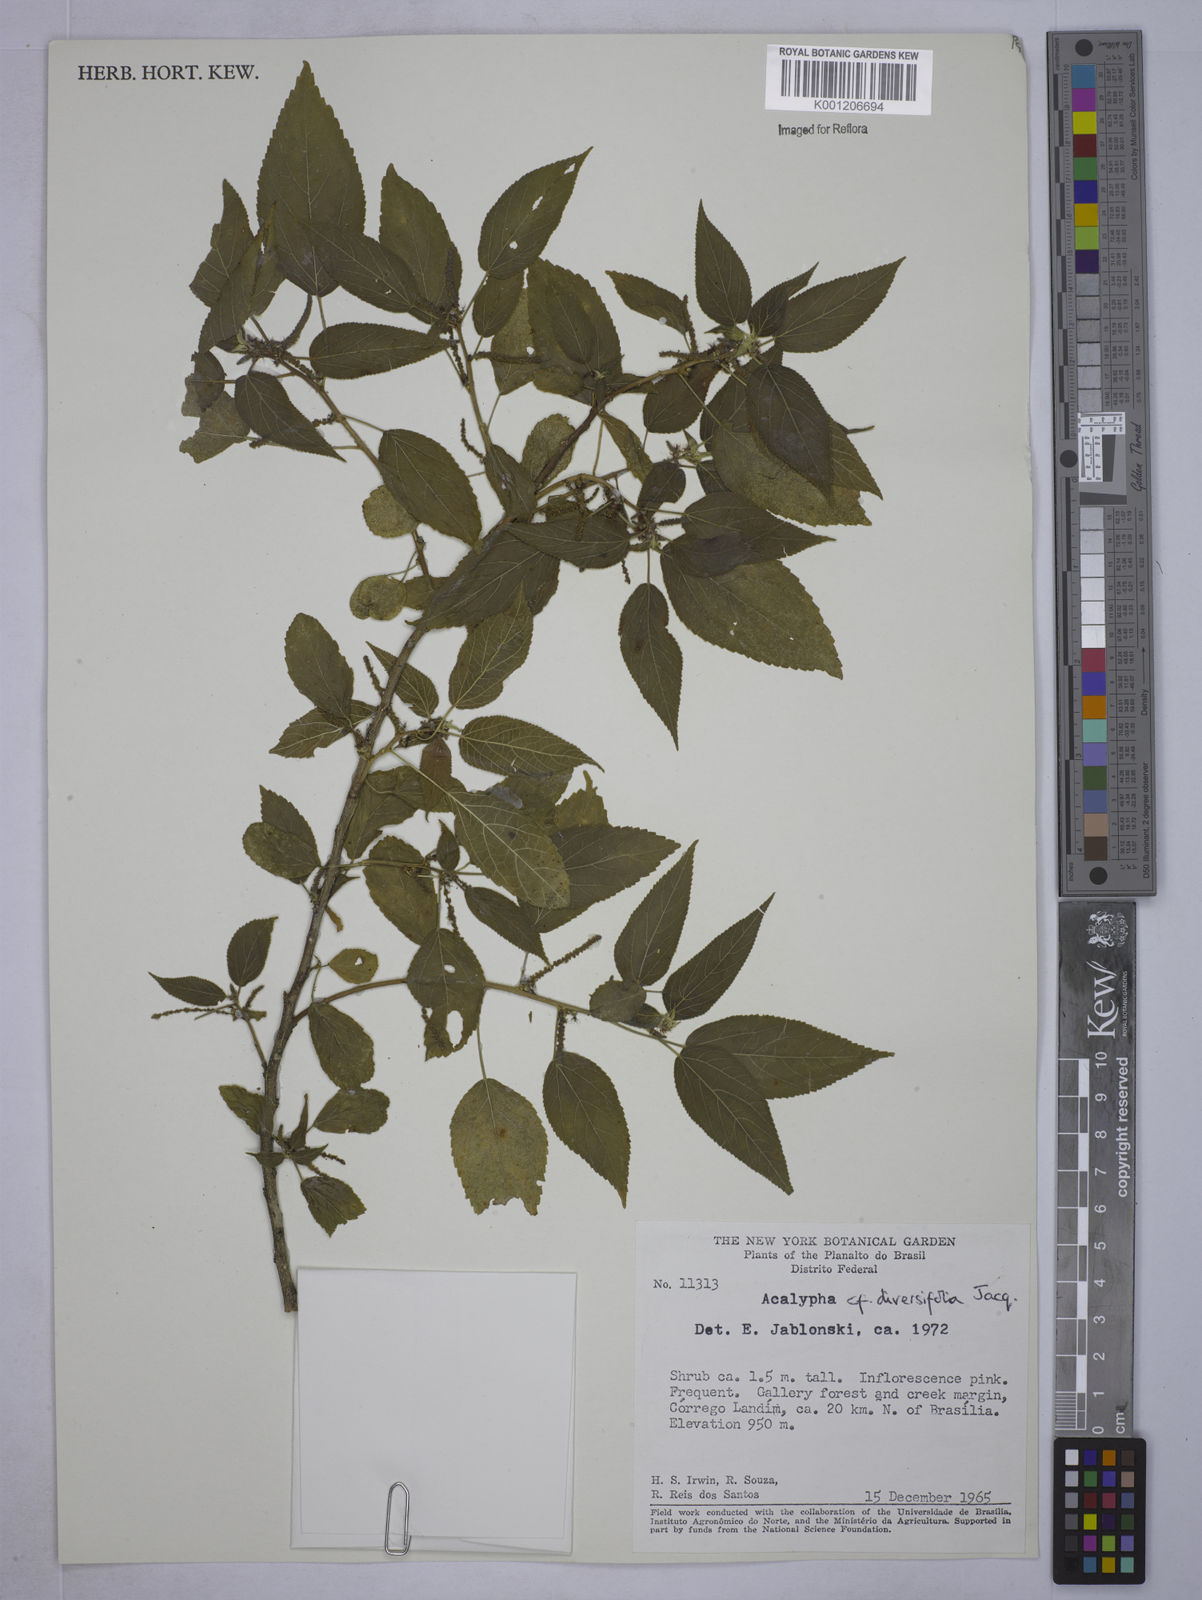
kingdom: Plantae
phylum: Tracheophyta
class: Magnoliopsida
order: Malpighiales
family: Euphorbiaceae
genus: Acalypha
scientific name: Acalypha diversifolia
